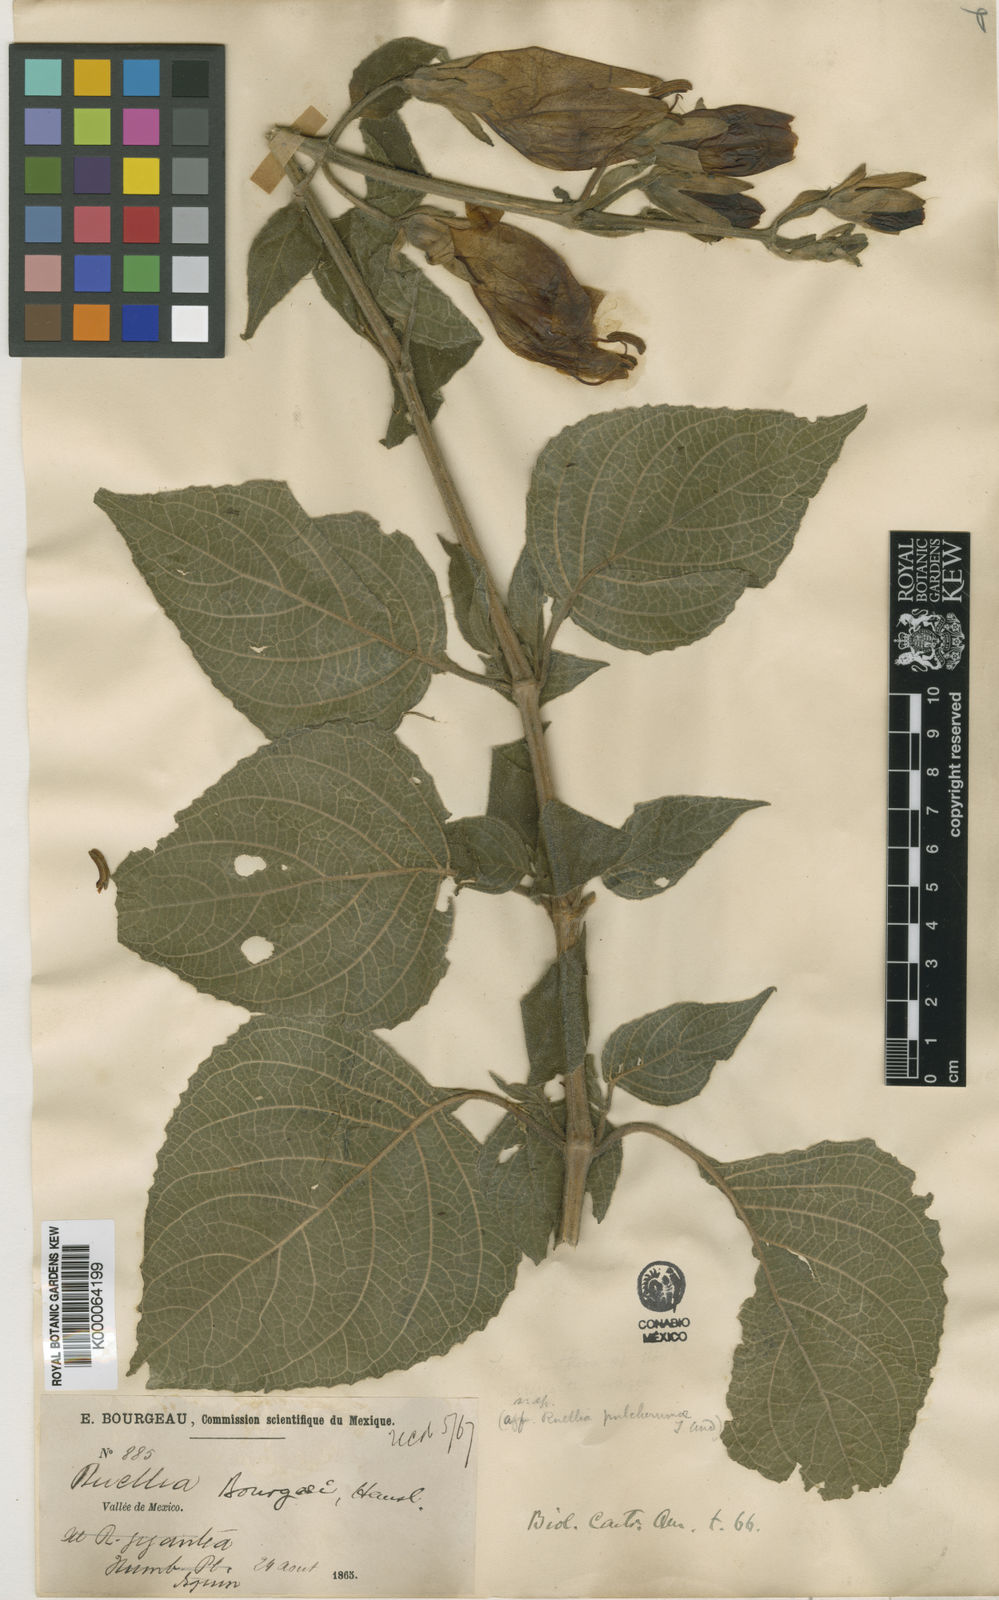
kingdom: Plantae
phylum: Tracheophyta
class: Magnoliopsida
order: Lamiales
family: Acanthaceae
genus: Ruellia
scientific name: Ruellia bourgaei
